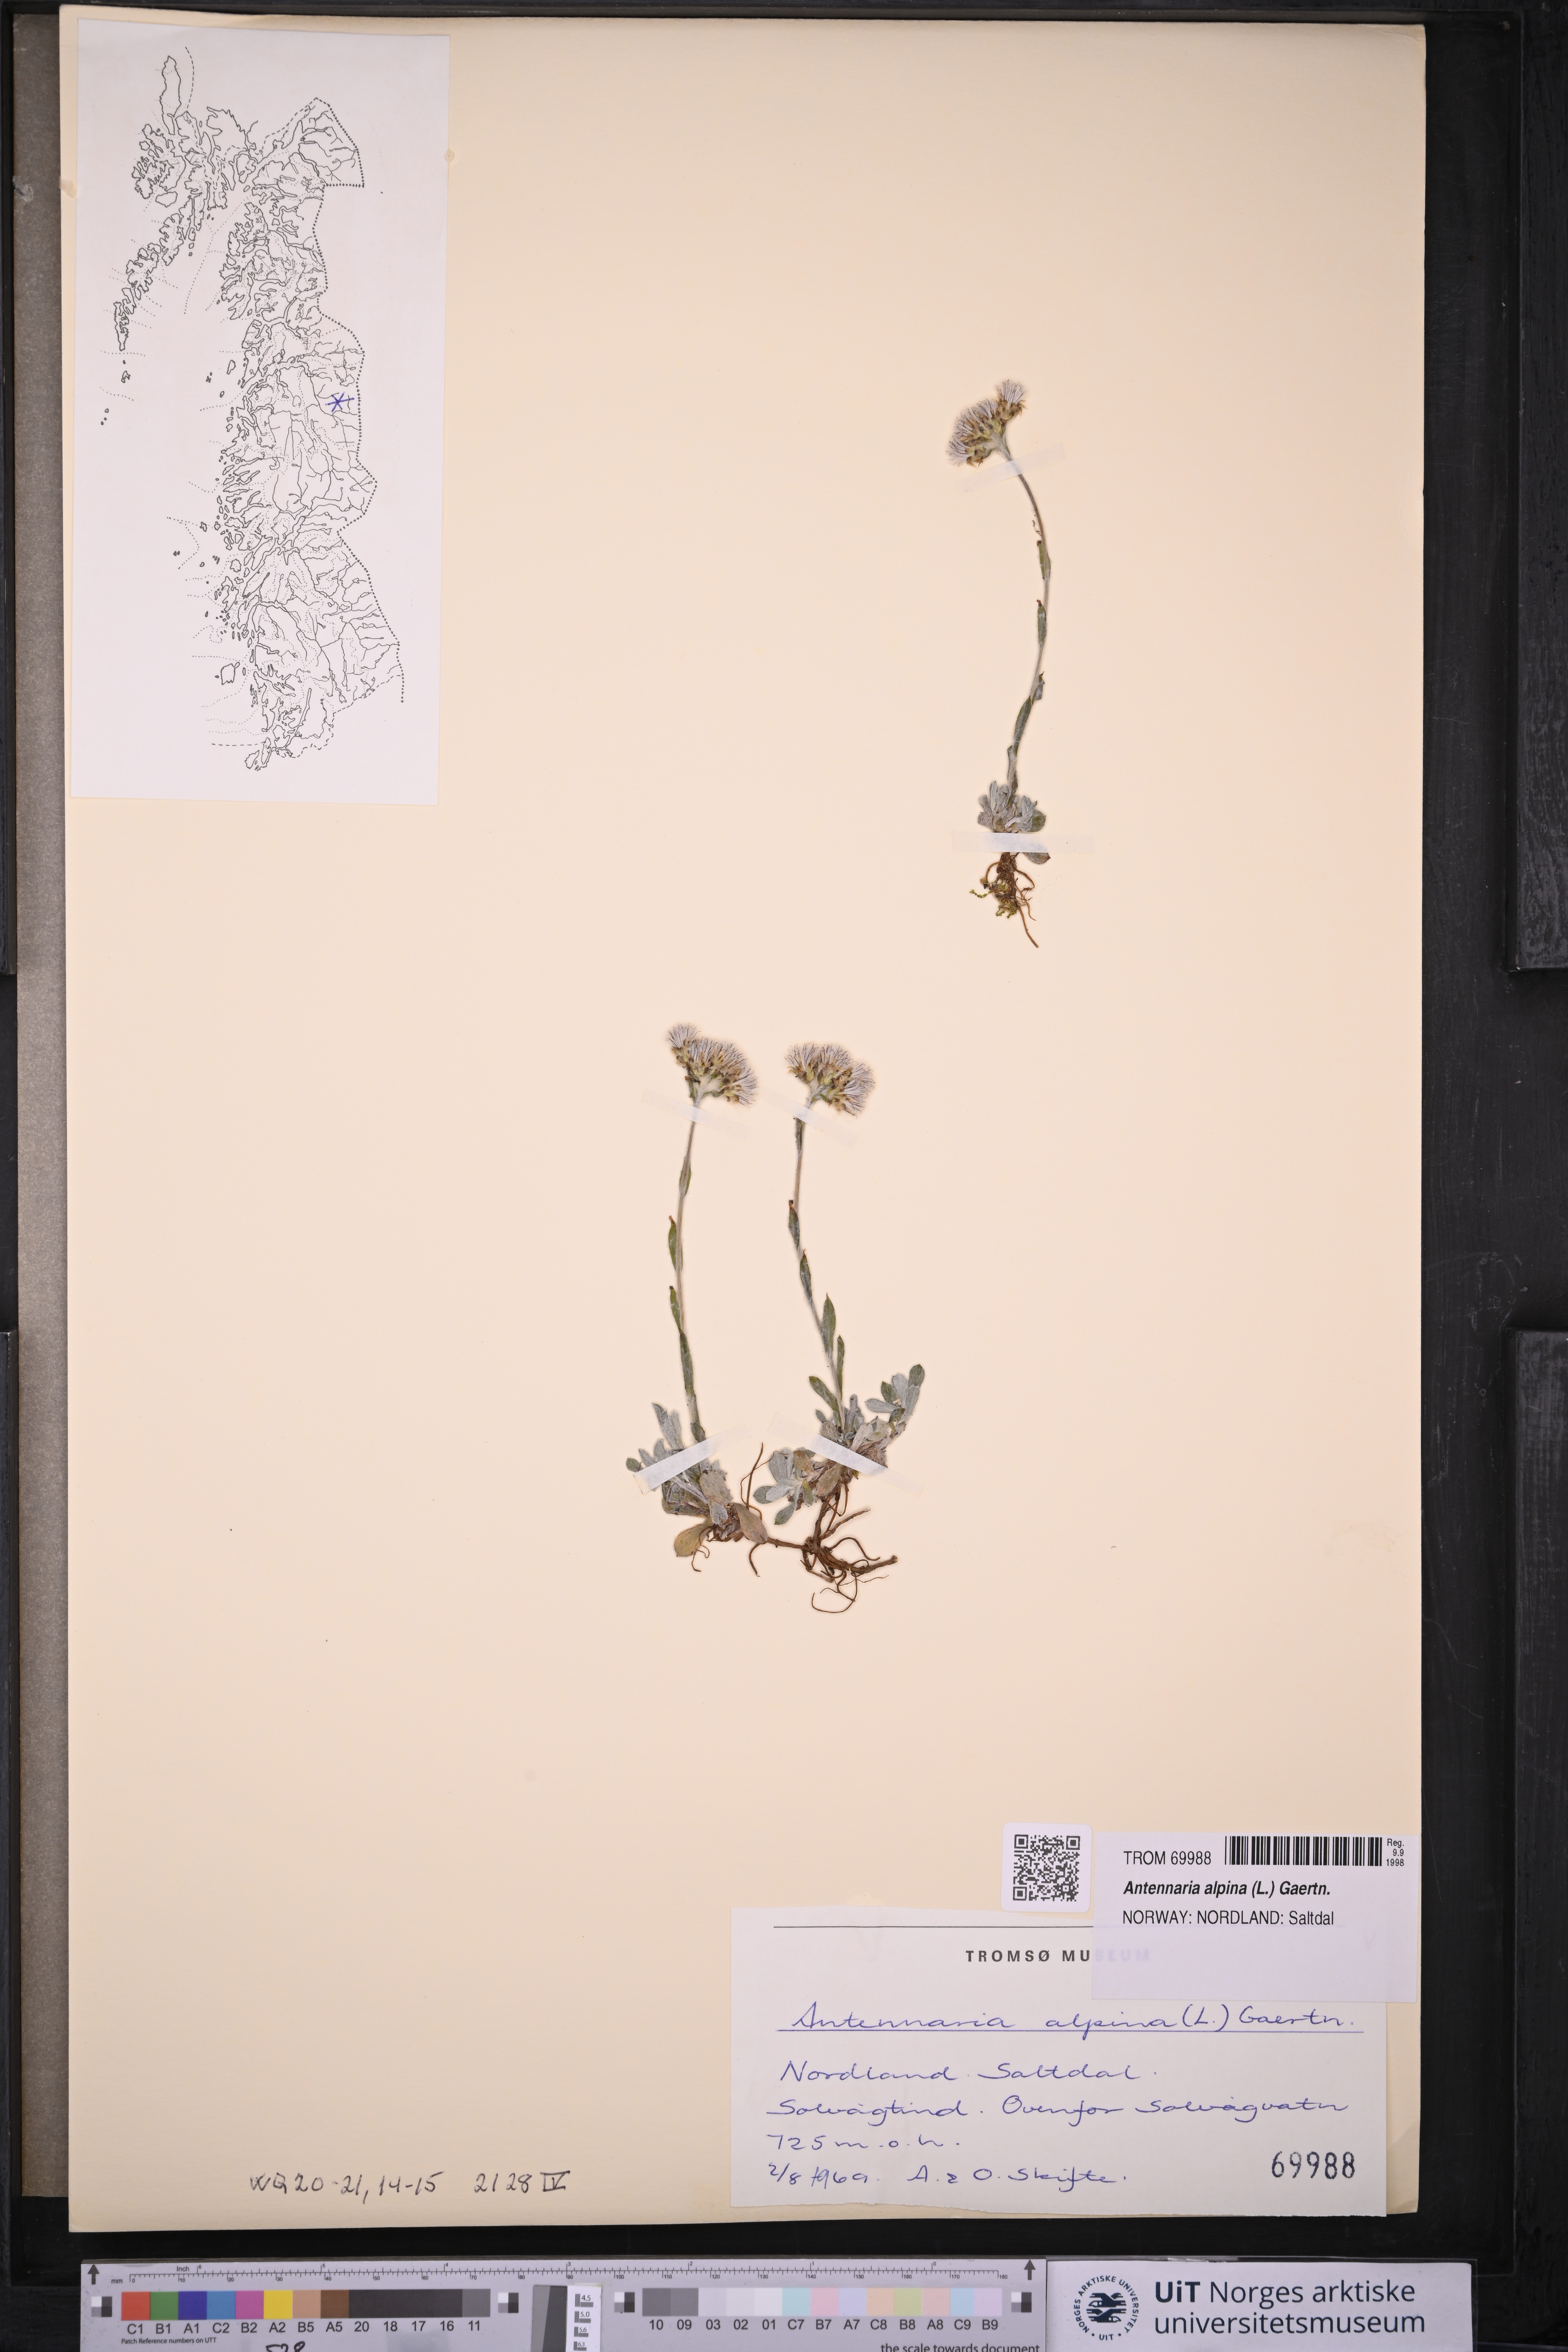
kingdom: Plantae
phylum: Tracheophyta
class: Magnoliopsida
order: Asterales
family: Asteraceae
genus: Antennaria
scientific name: Antennaria alpina
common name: Alpine pussytoes
